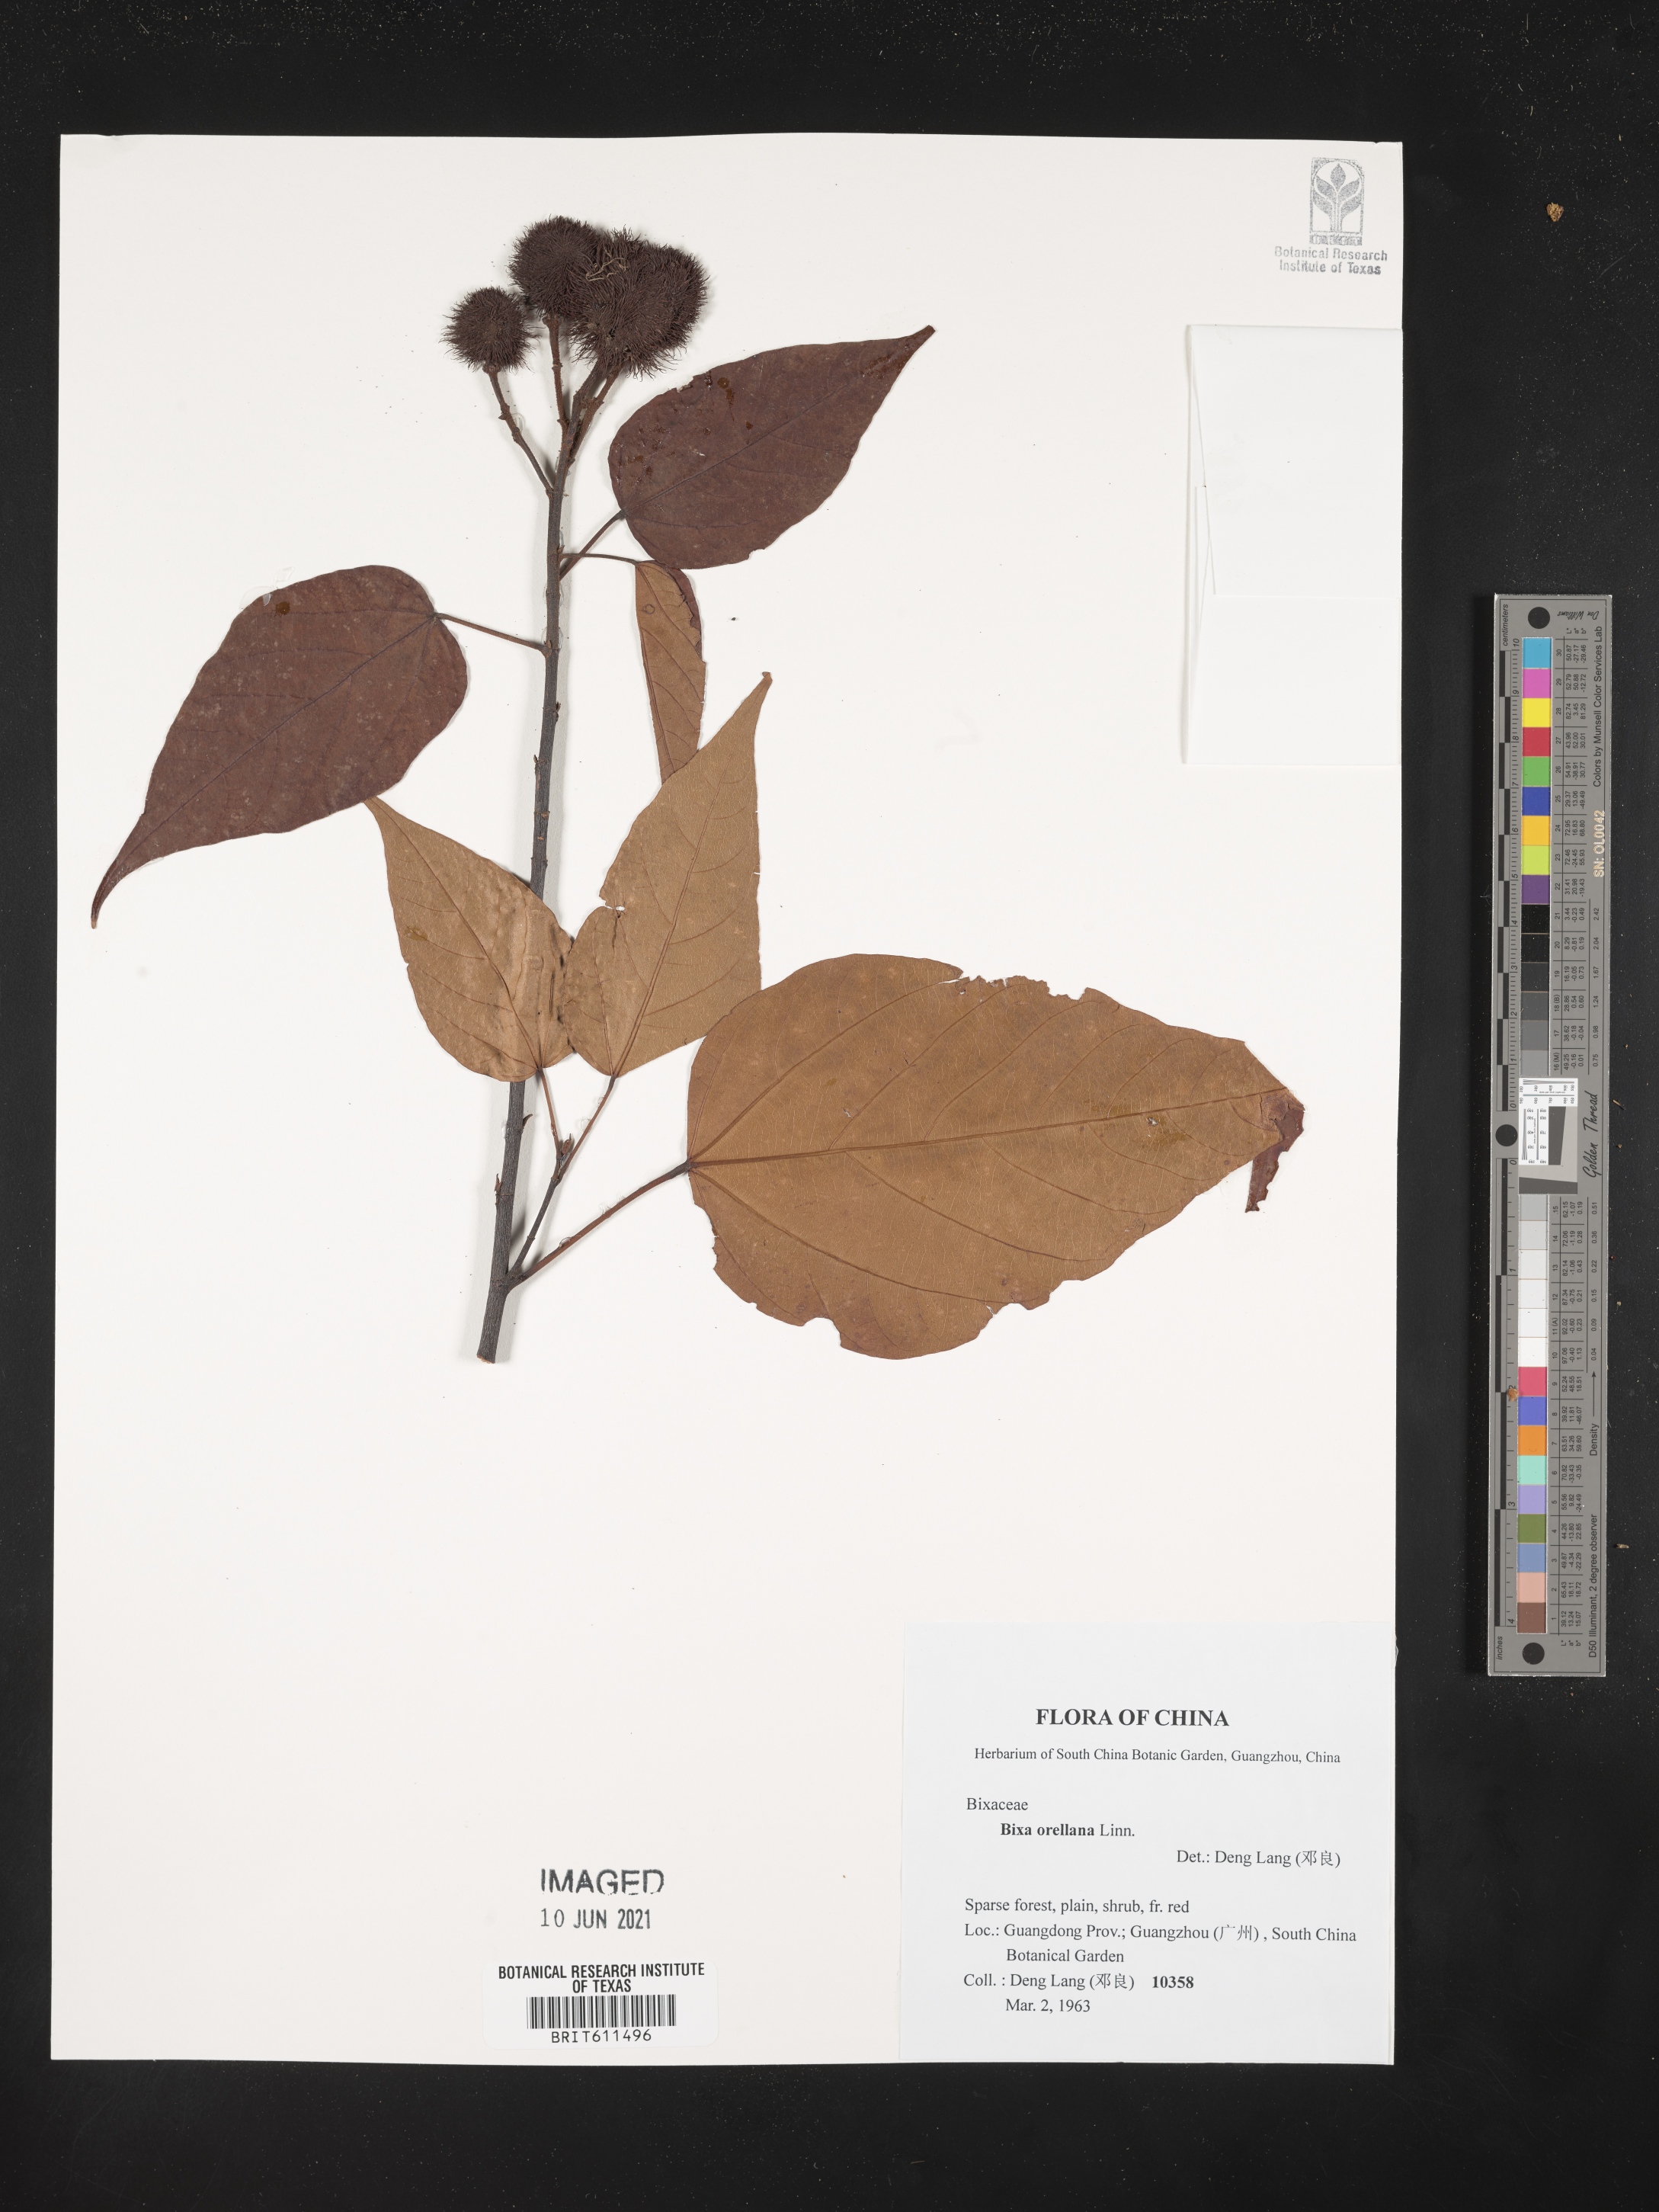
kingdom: Plantae
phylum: Tracheophyta
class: Magnoliopsida
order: Malvales
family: Bixaceae
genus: Bixa
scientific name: Bixa orellana
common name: Lipsticktree
